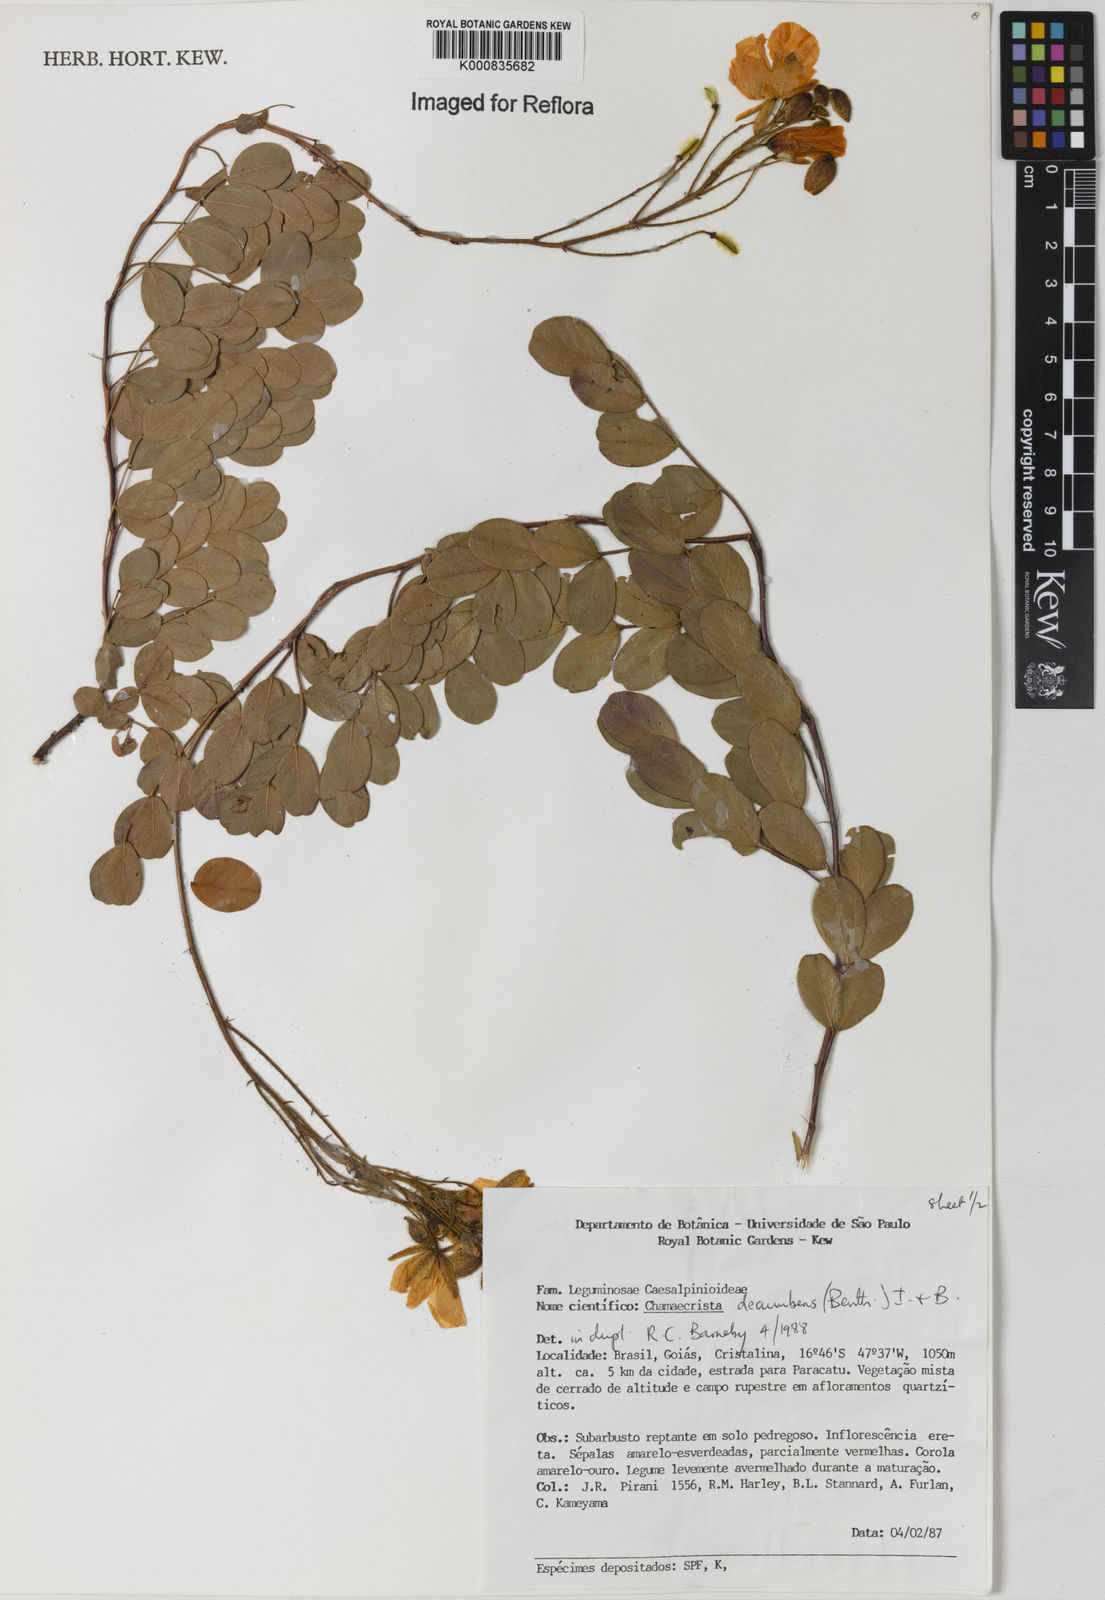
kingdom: Plantae
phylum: Tracheophyta
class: Magnoliopsida
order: Fabales
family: Fabaceae
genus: Chamaecrista
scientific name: Chamaecrista decumbens
